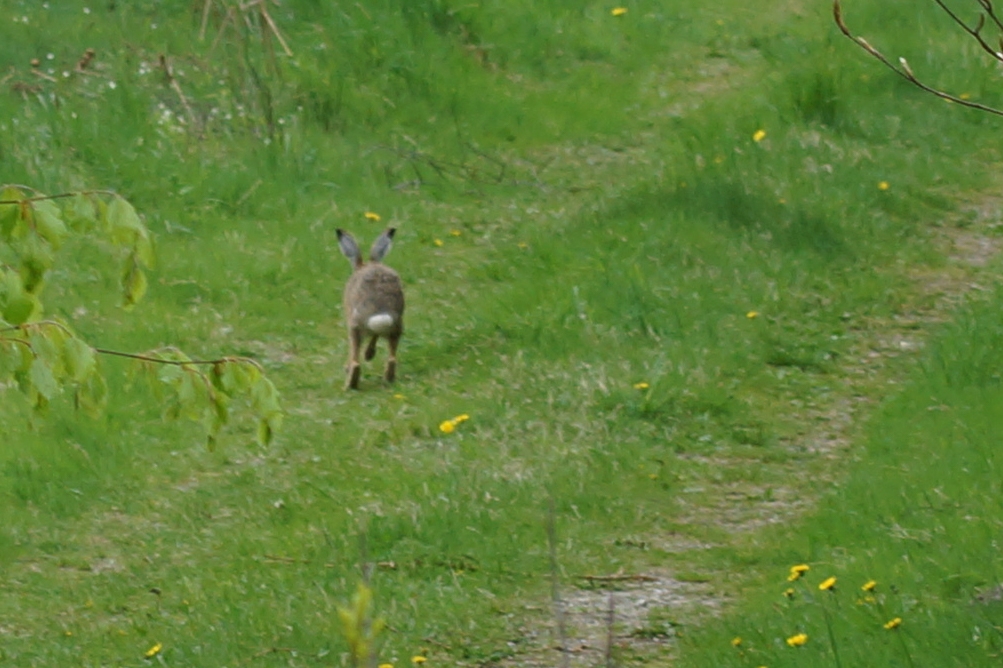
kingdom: Animalia
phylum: Chordata
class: Mammalia
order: Lagomorpha
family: Leporidae
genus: Lepus
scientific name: Lepus europaeus
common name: Hare
